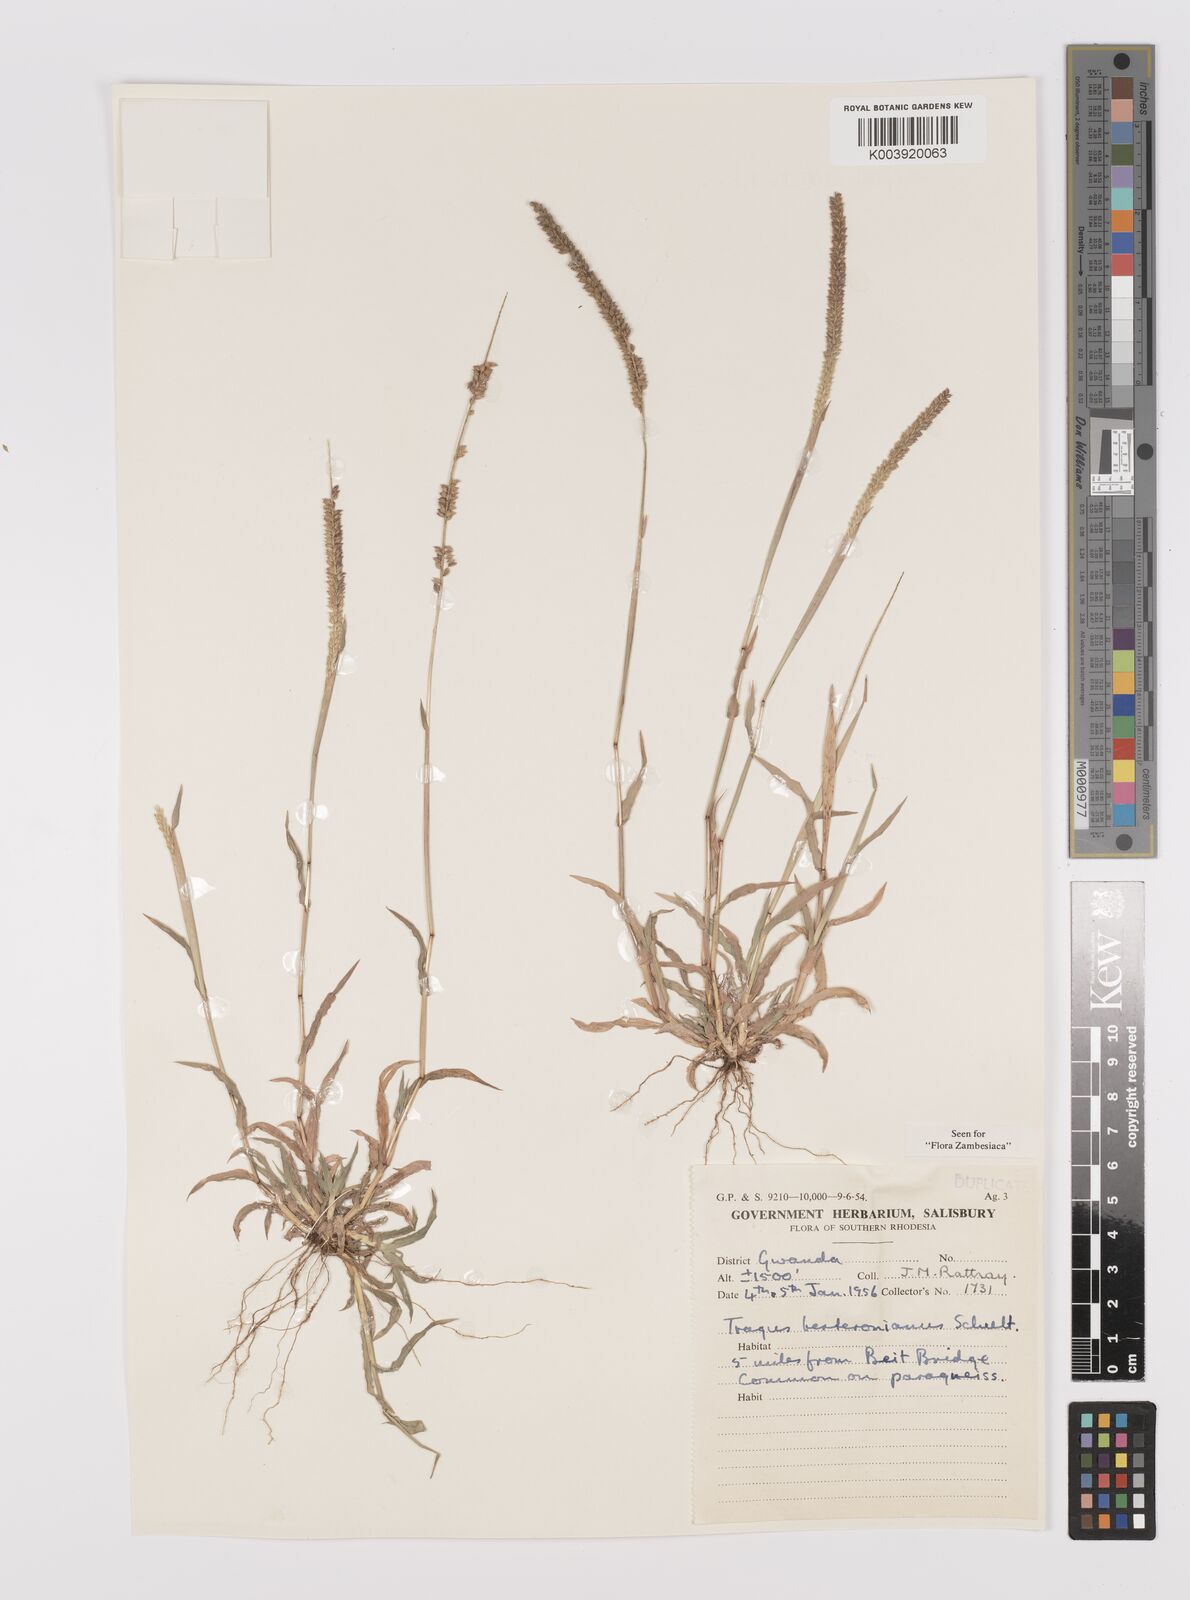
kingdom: Plantae
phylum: Tracheophyta
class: Liliopsida
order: Poales
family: Poaceae
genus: Tragus
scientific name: Tragus berteronianus
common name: African bur-grass
